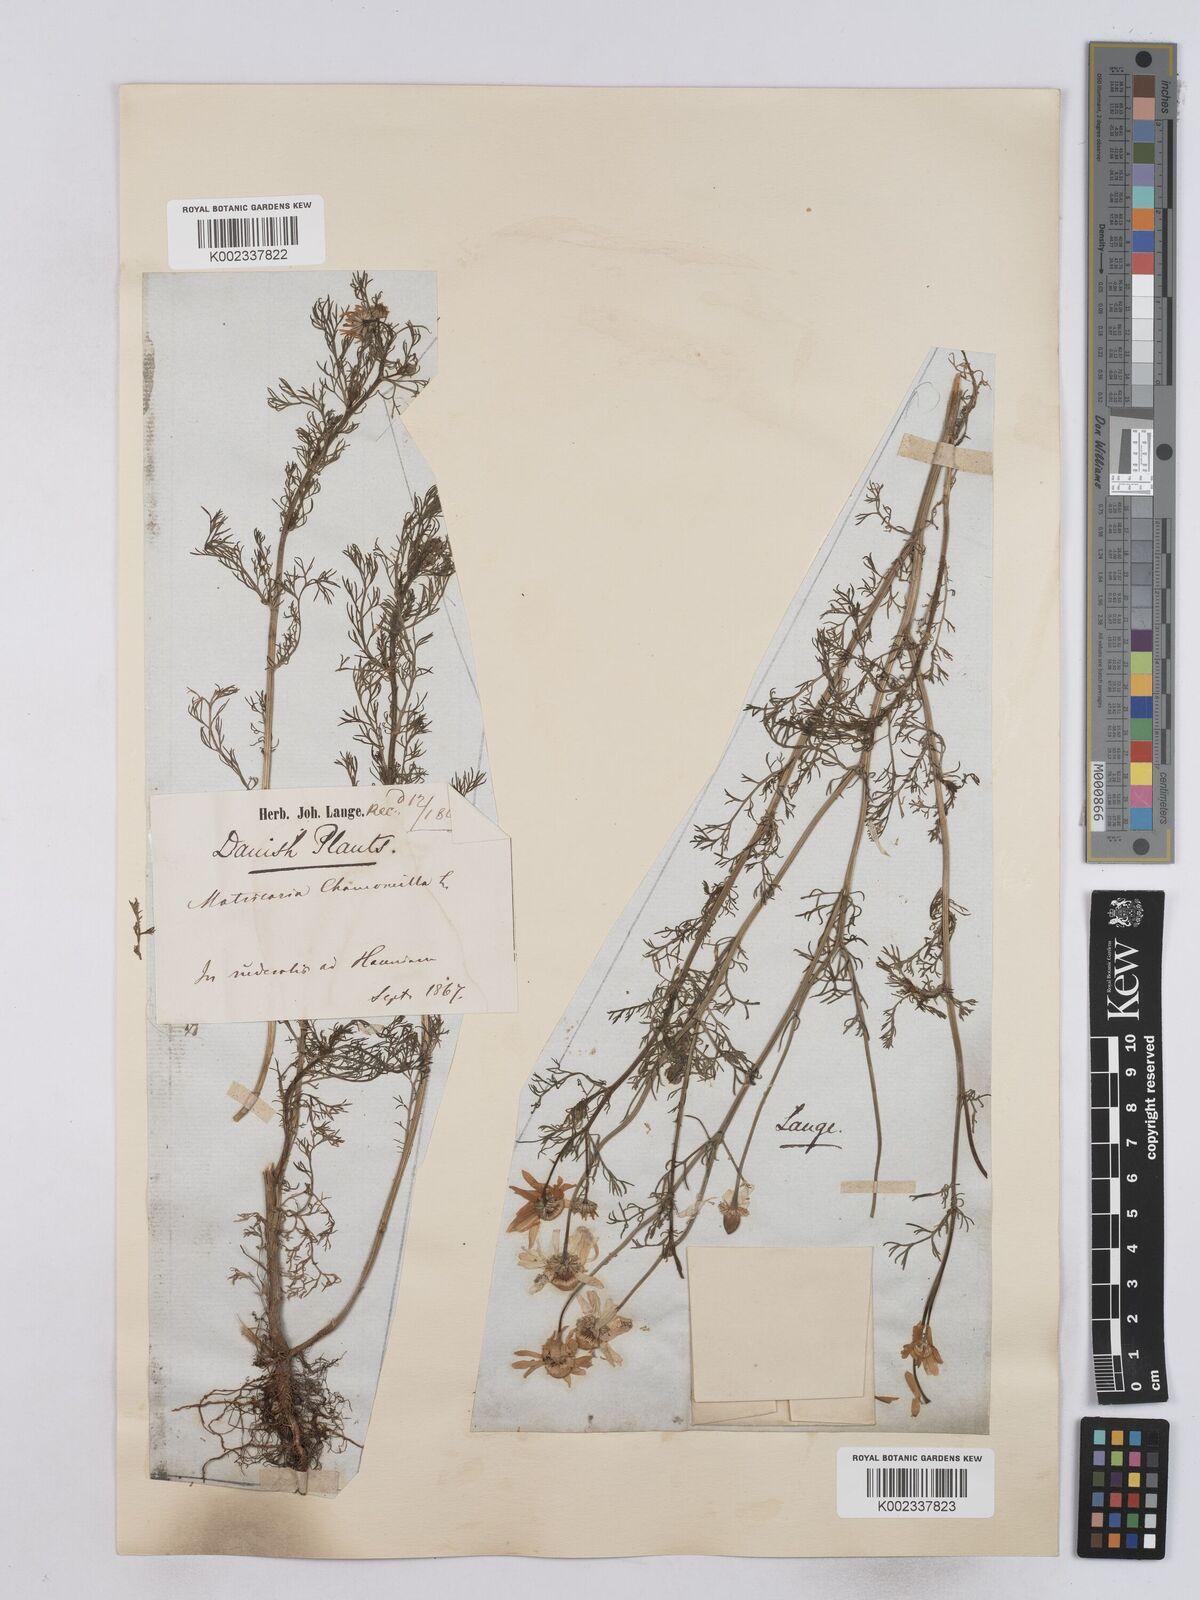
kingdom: Plantae
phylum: Tracheophyta
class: Magnoliopsida
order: Asterales
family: Asteraceae
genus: Matricaria
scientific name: Matricaria chamomilla
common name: Scented mayweed
